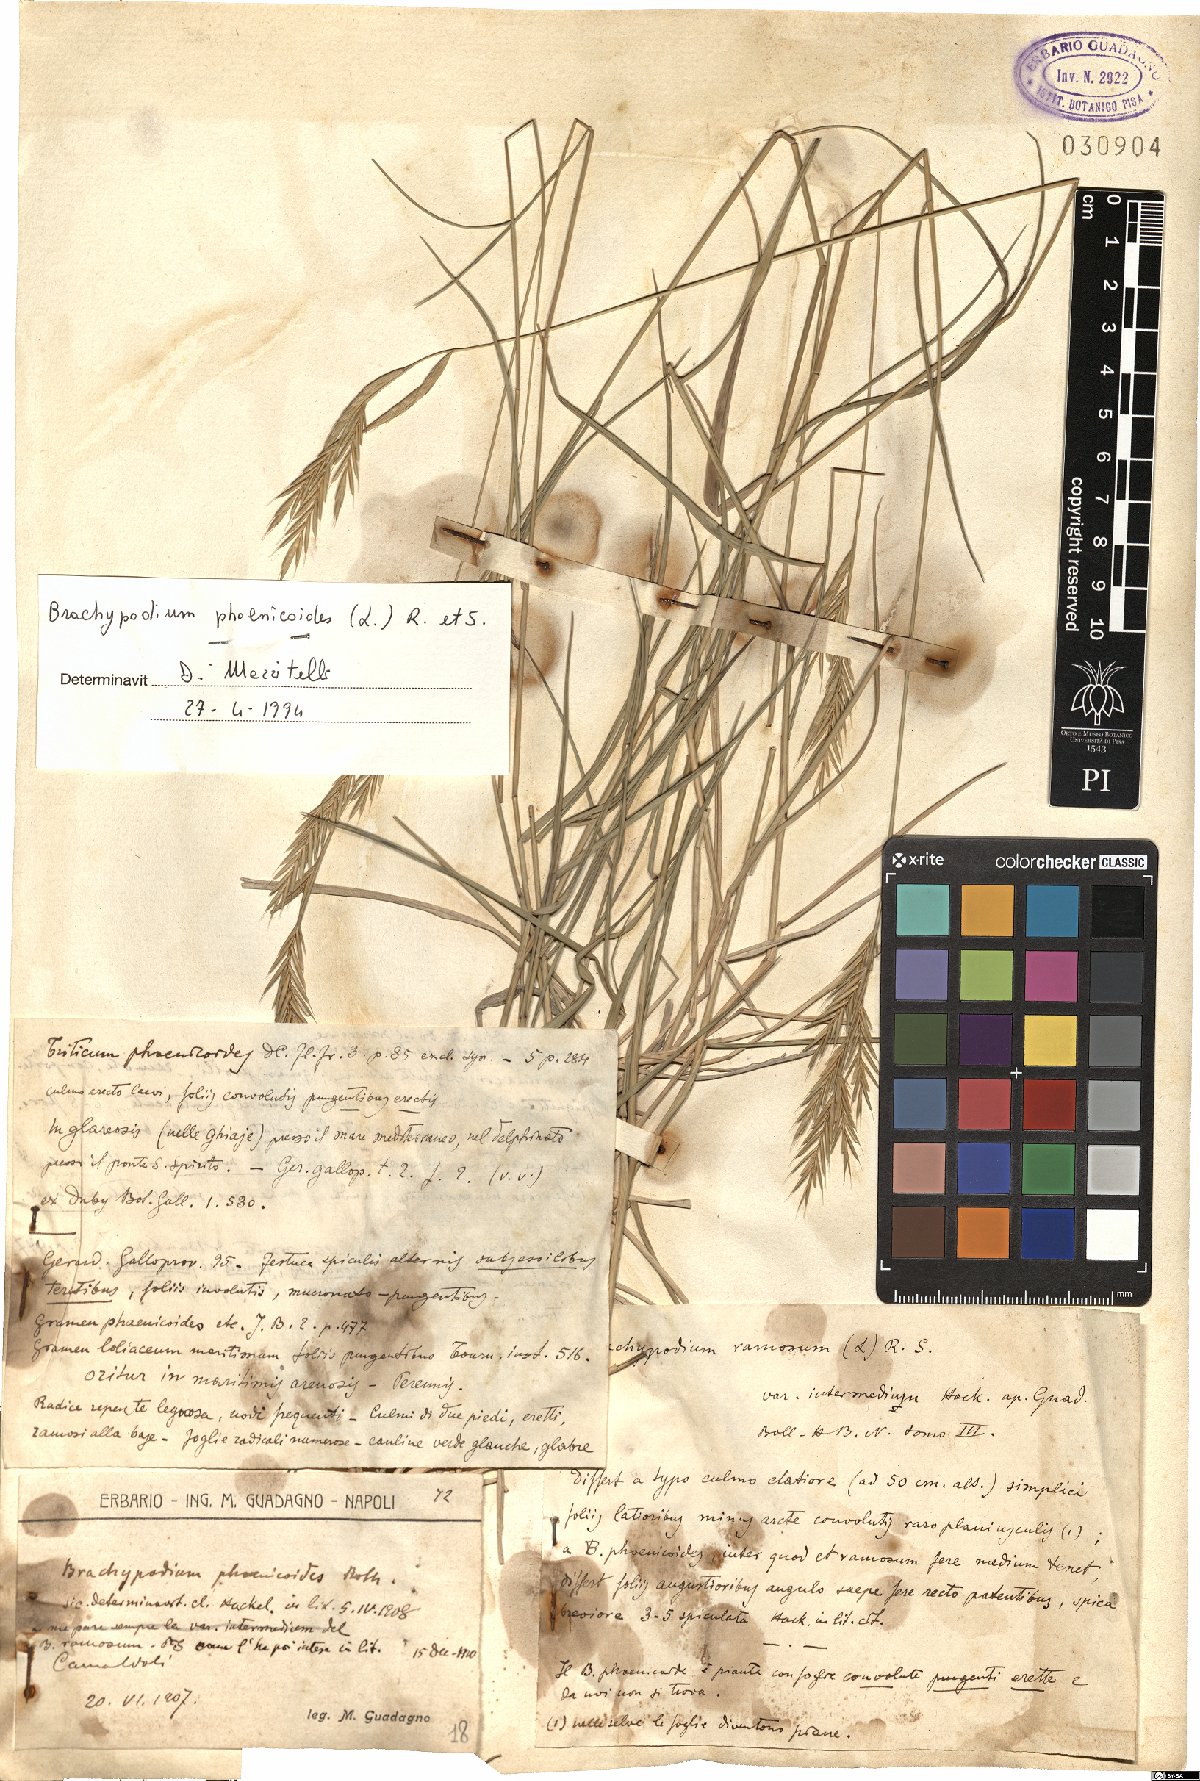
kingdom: Plantae
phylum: Tracheophyta
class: Liliopsida
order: Poales
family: Poaceae
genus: Brachypodium
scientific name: Brachypodium phoenicoides
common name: Thinleaf false brome
